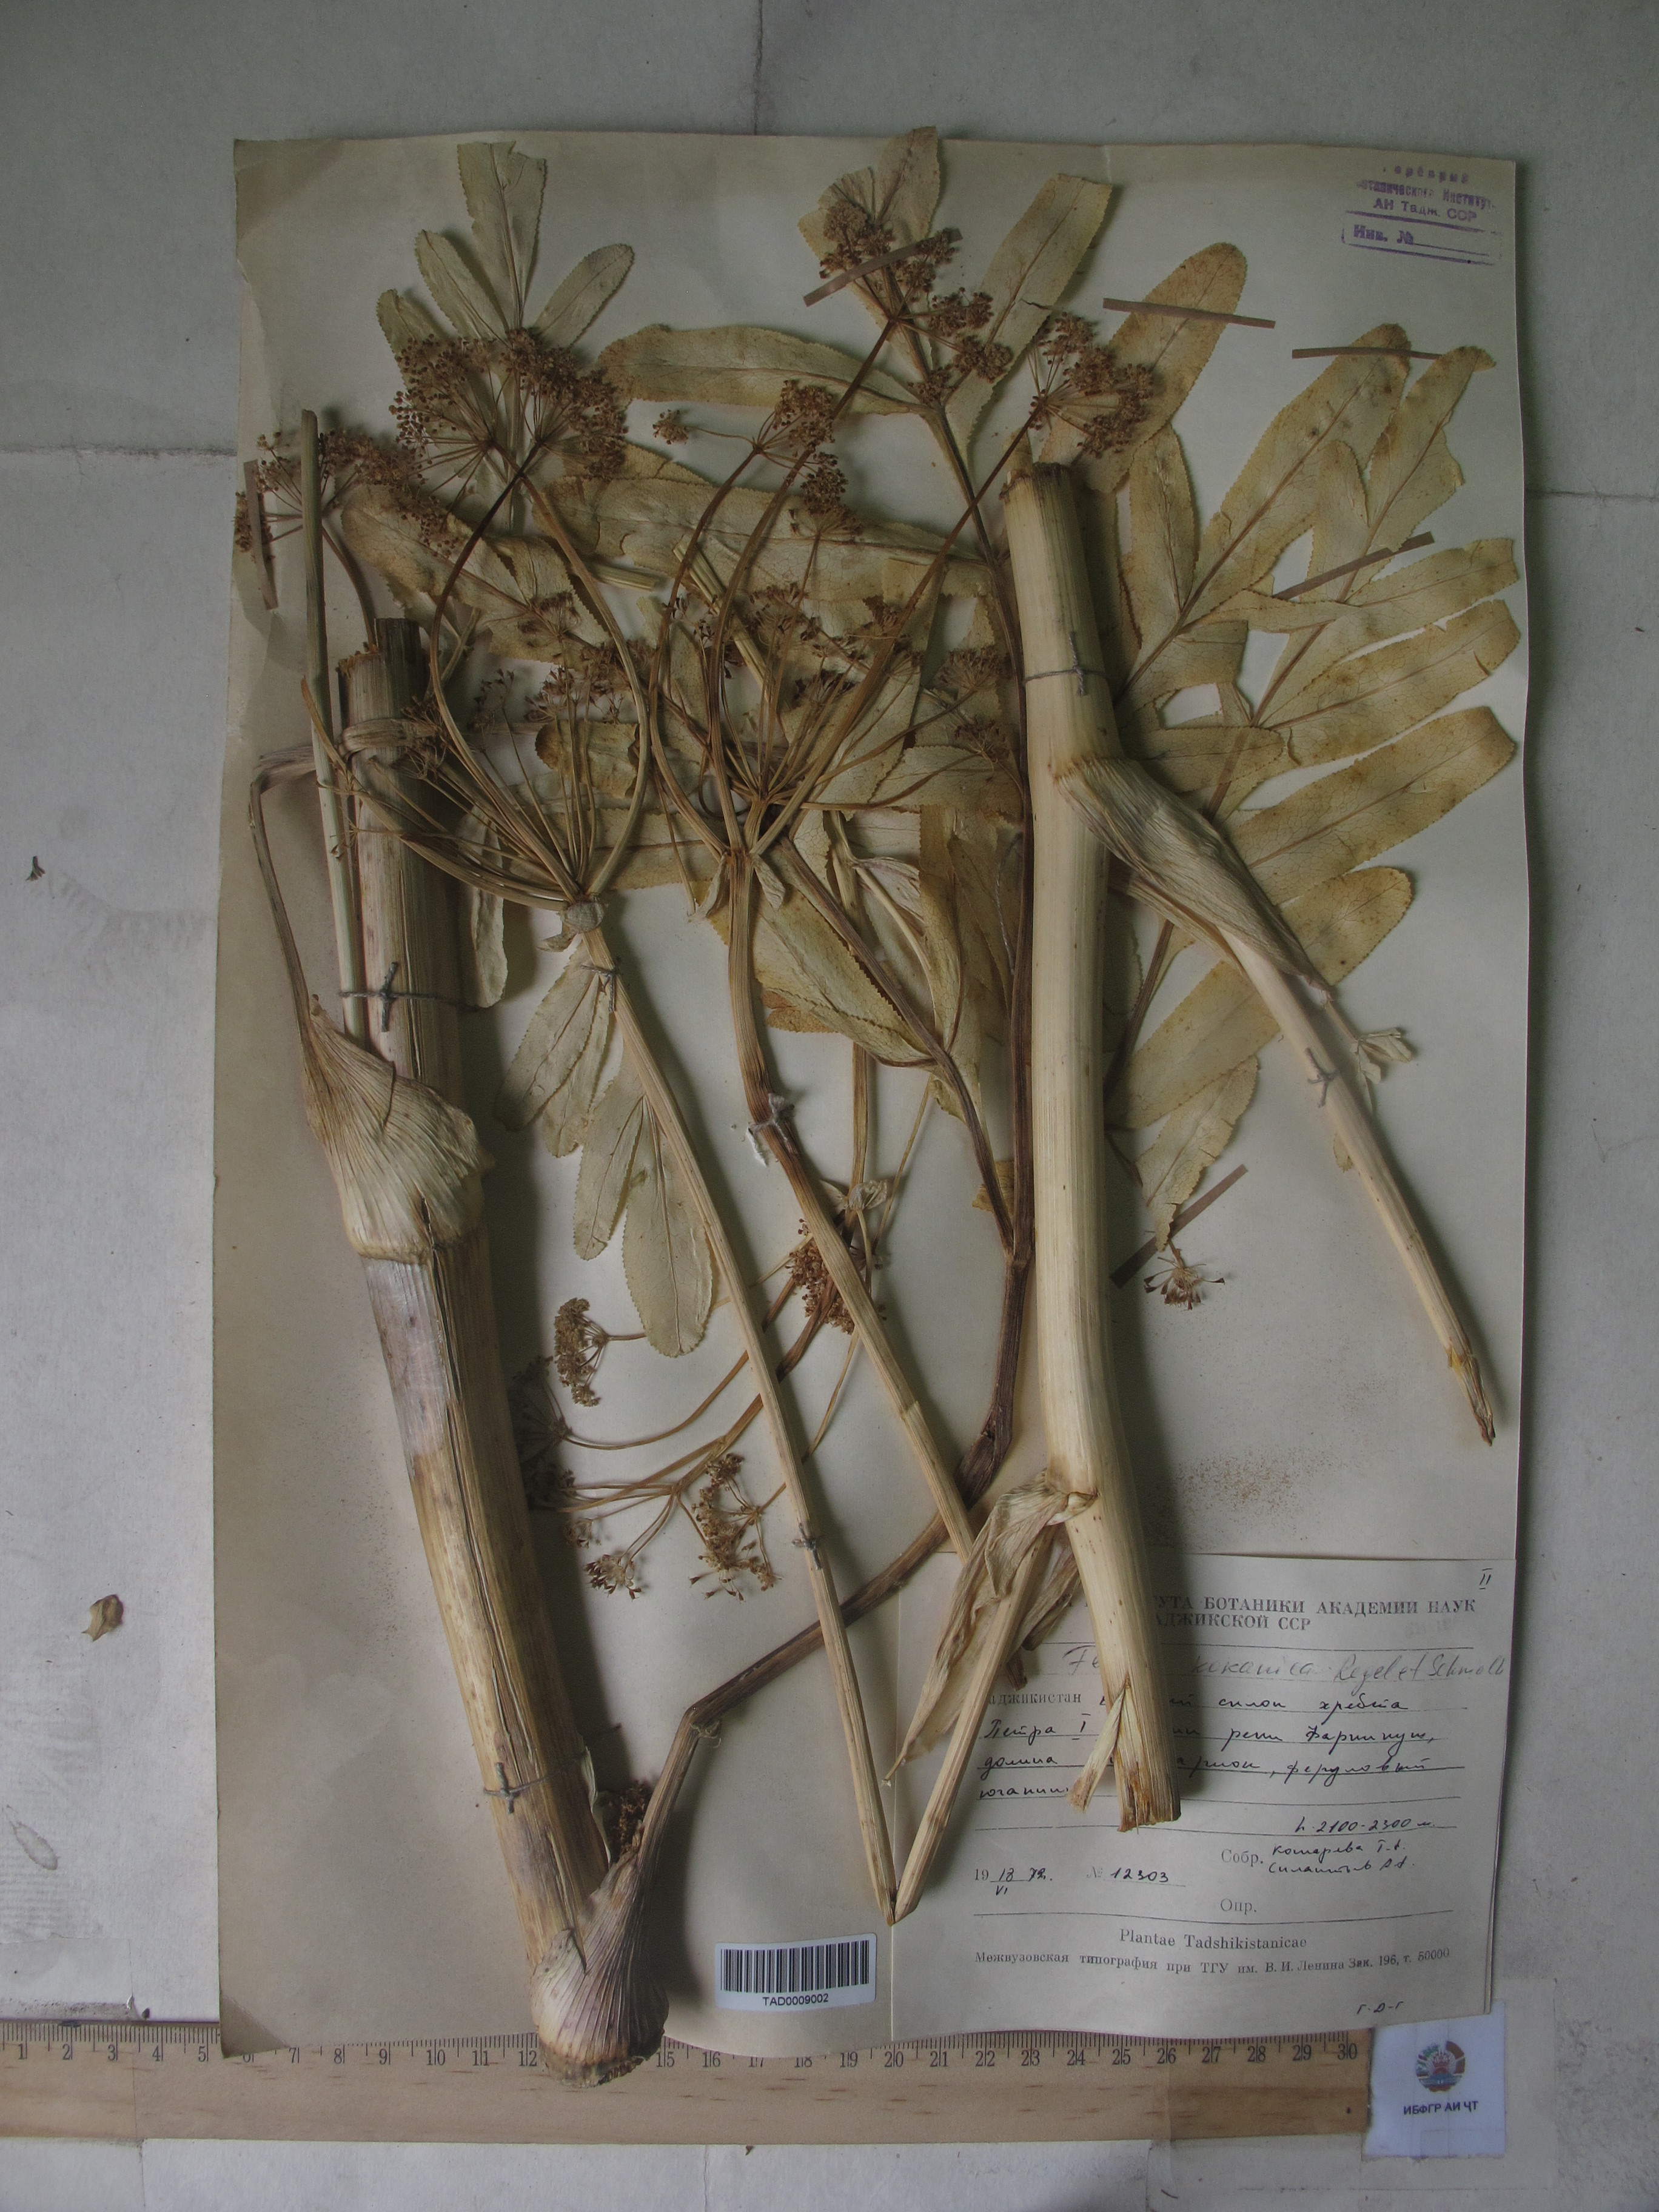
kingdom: Plantae
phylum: Tracheophyta
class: Magnoliopsida
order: Apiales
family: Apiaceae
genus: Ferula
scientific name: Ferula kokanica
